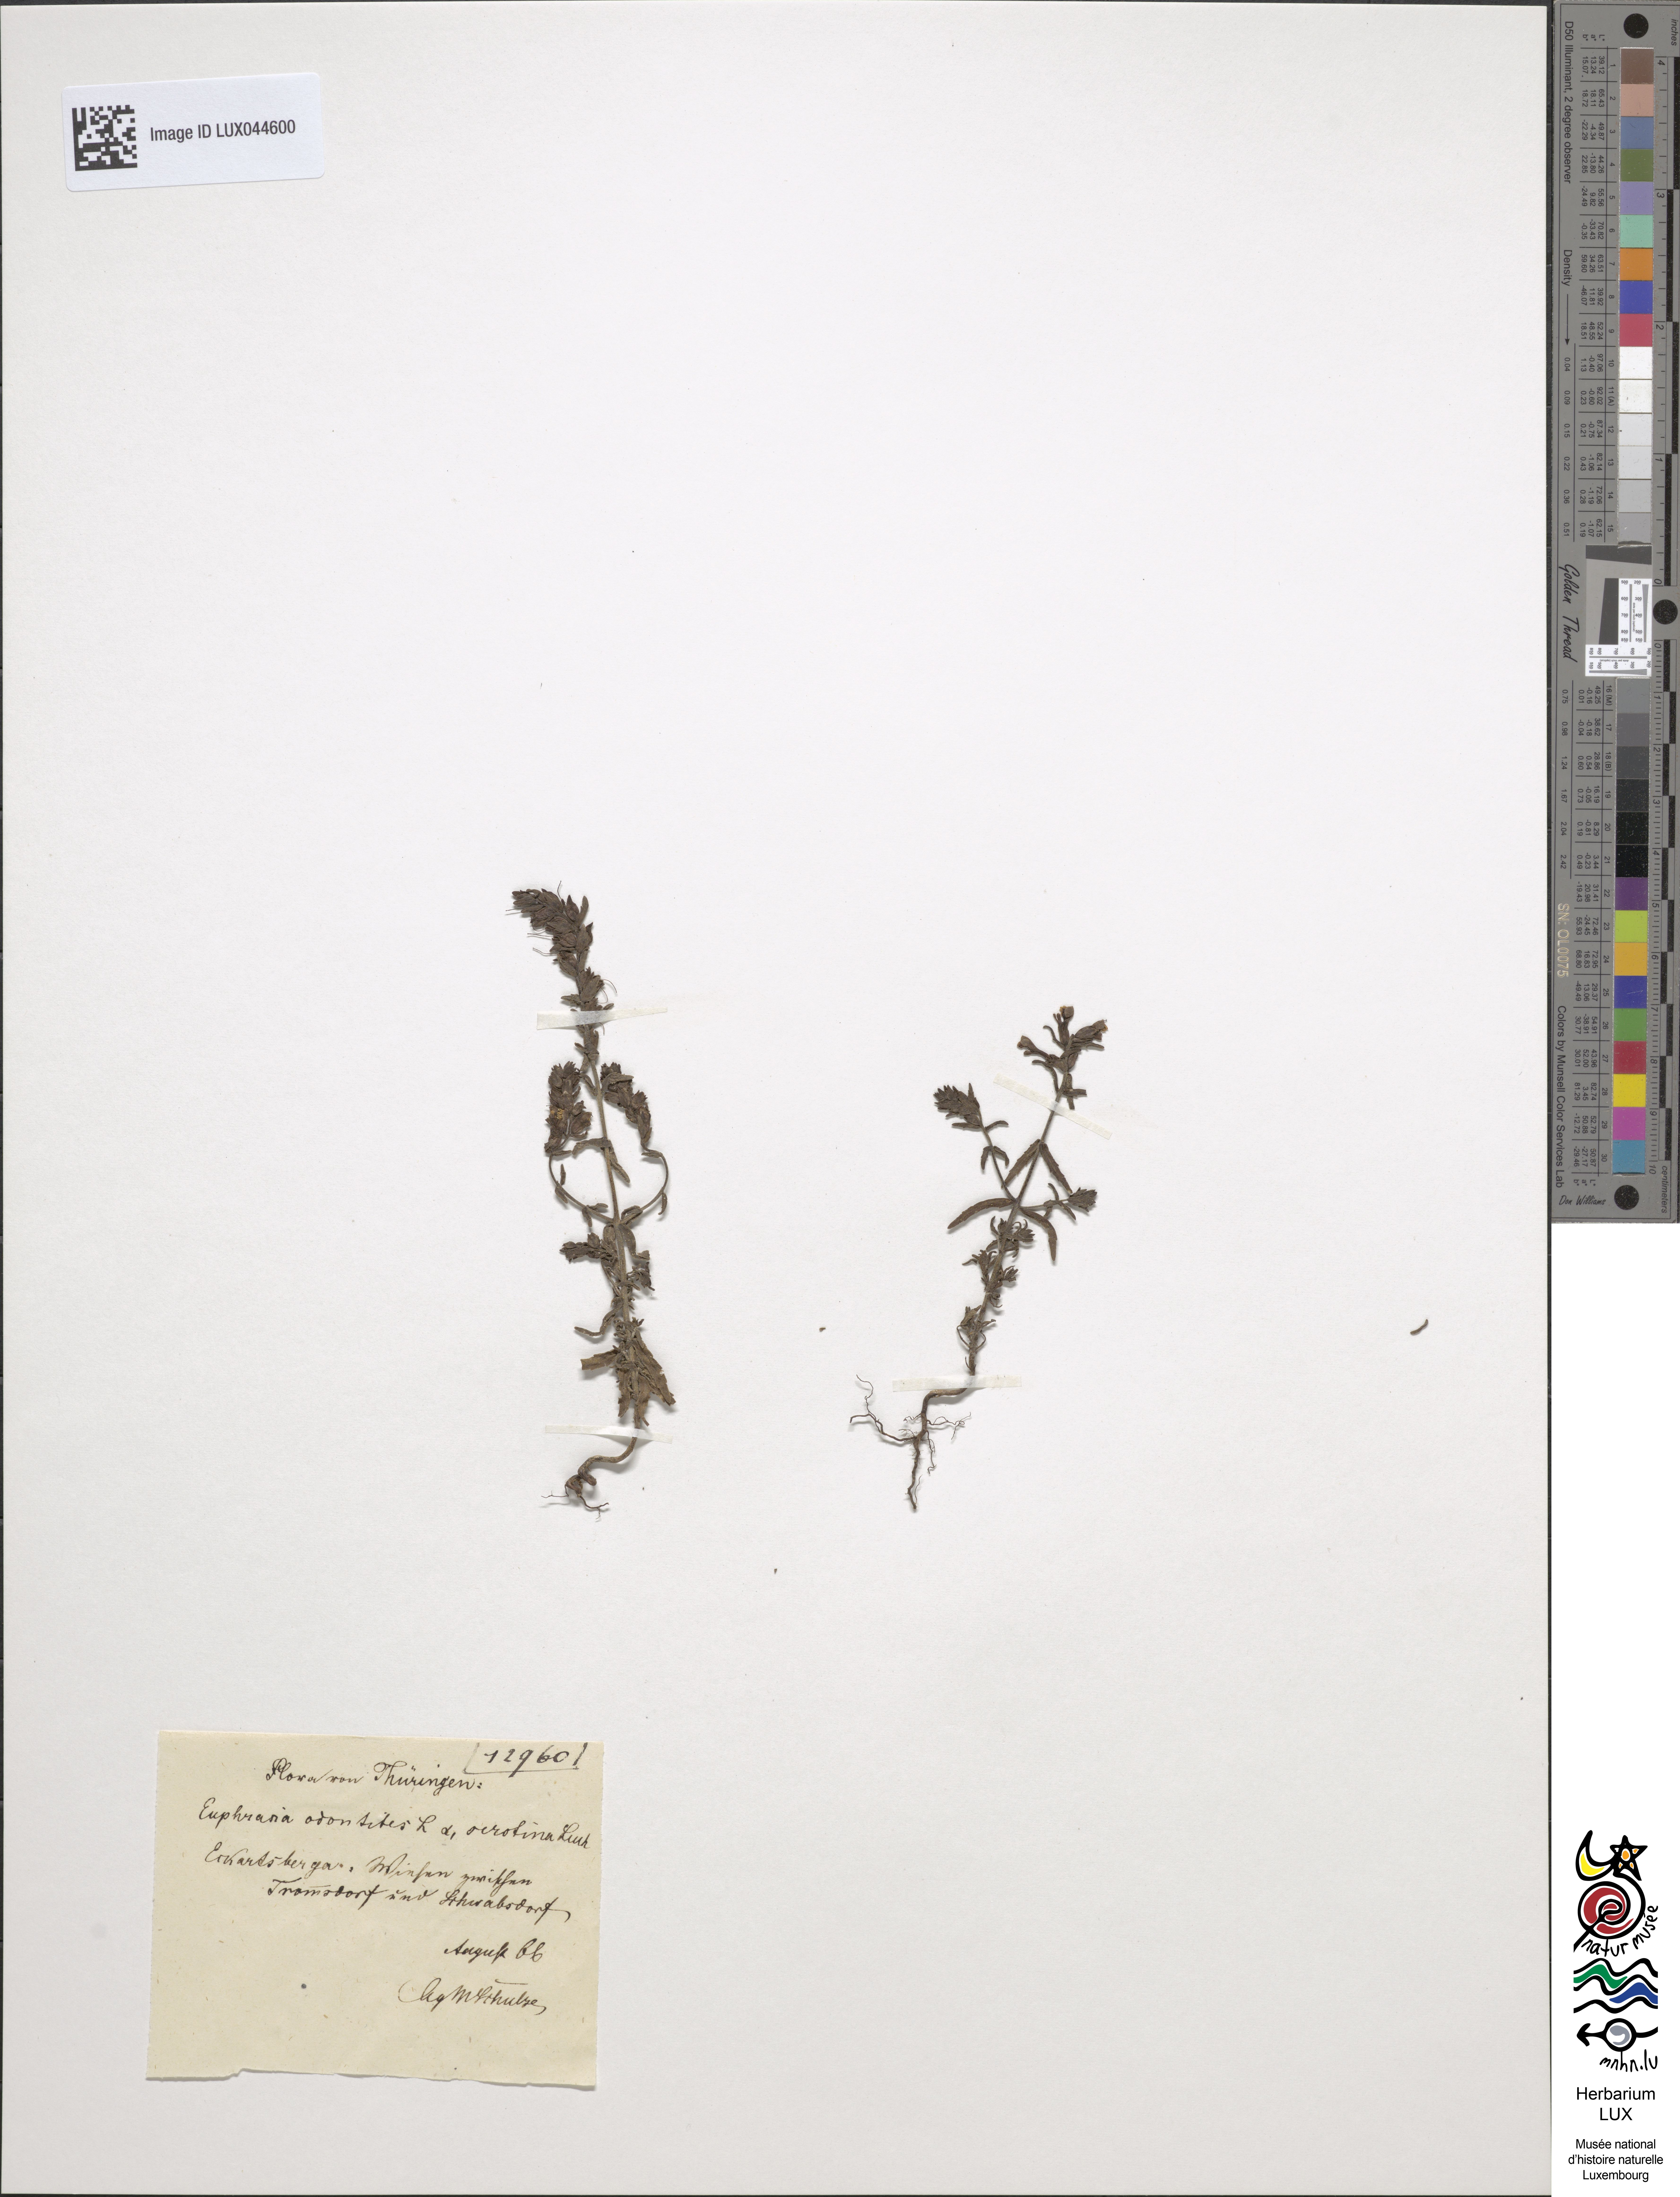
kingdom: Plantae
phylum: Tracheophyta
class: Magnoliopsida
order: Lamiales
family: Orobanchaceae
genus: Odontites
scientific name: Odontites serotinus
